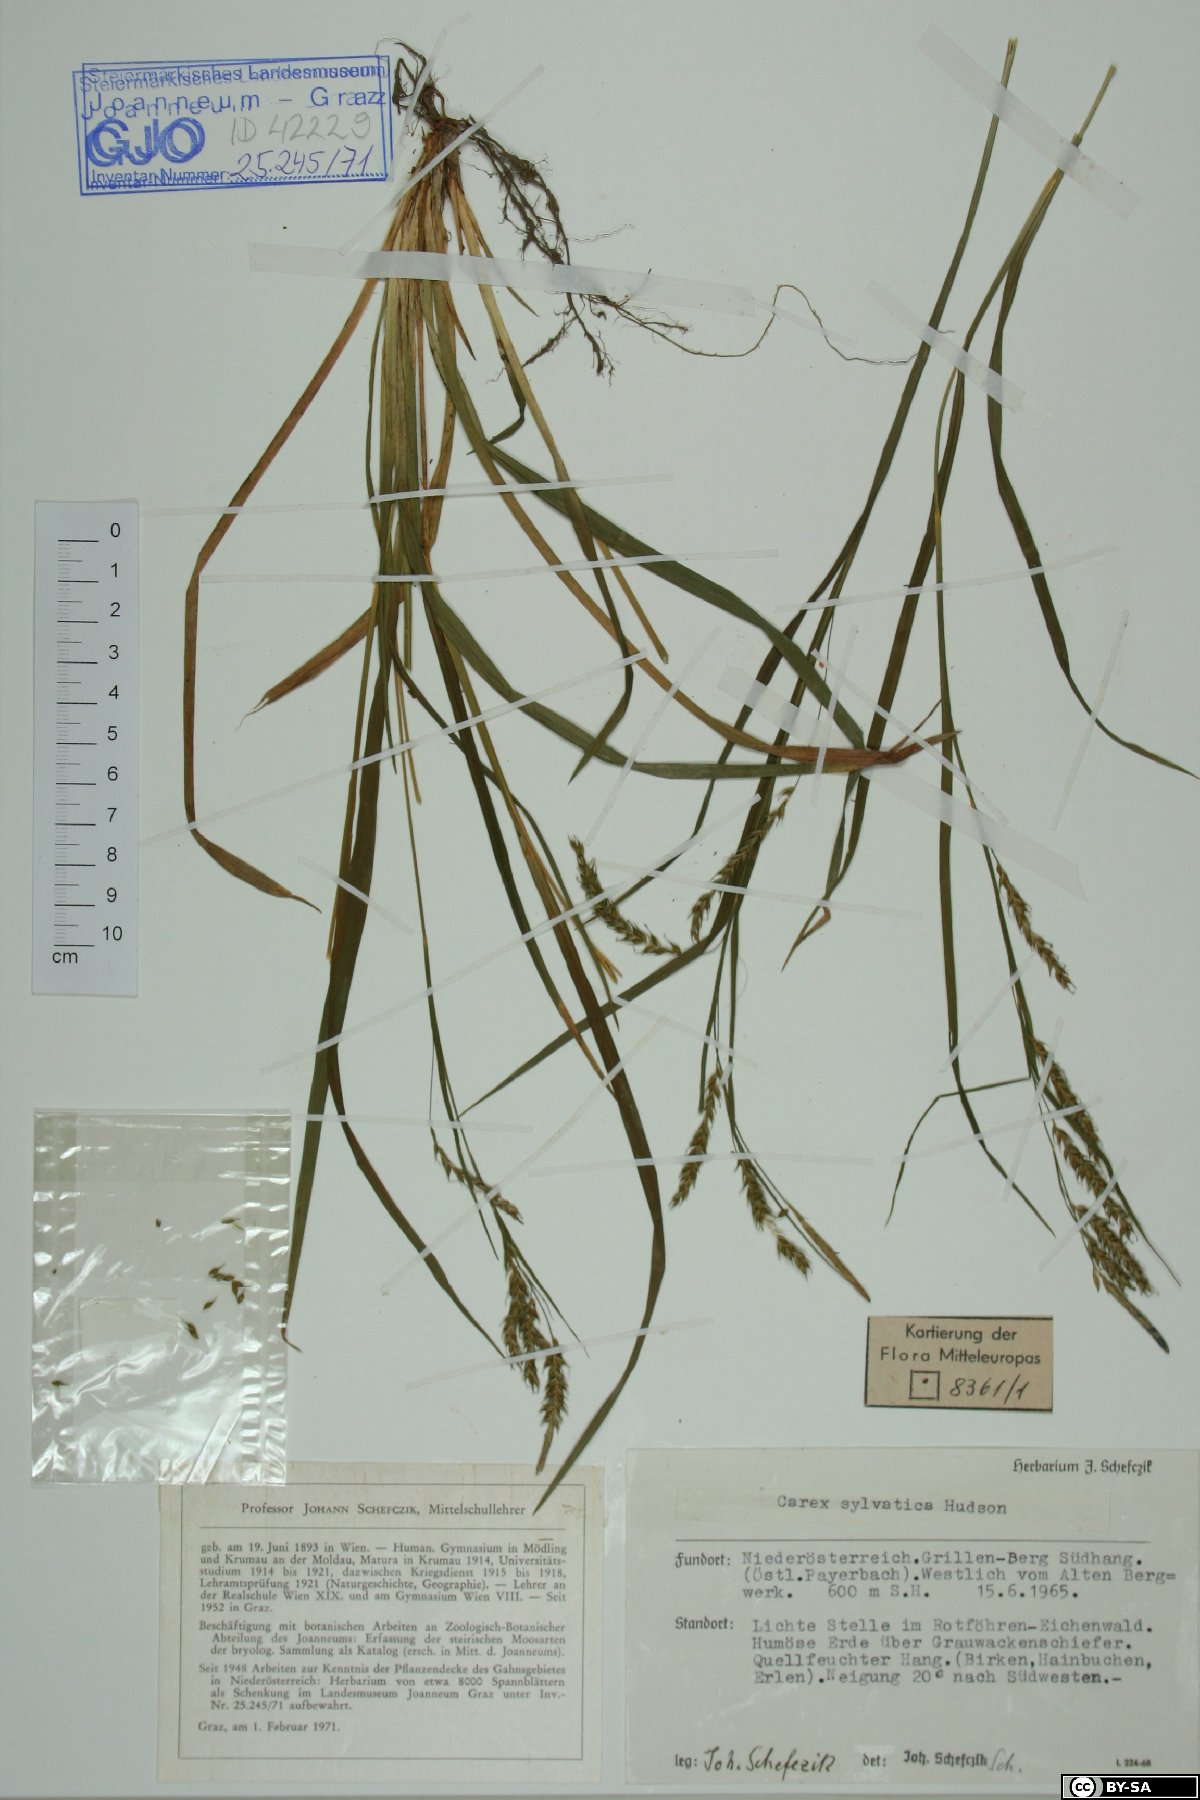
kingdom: Plantae
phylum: Tracheophyta
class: Liliopsida
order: Poales
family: Cyperaceae
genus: Carex
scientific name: Carex sylvatica
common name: Wood-sedge
